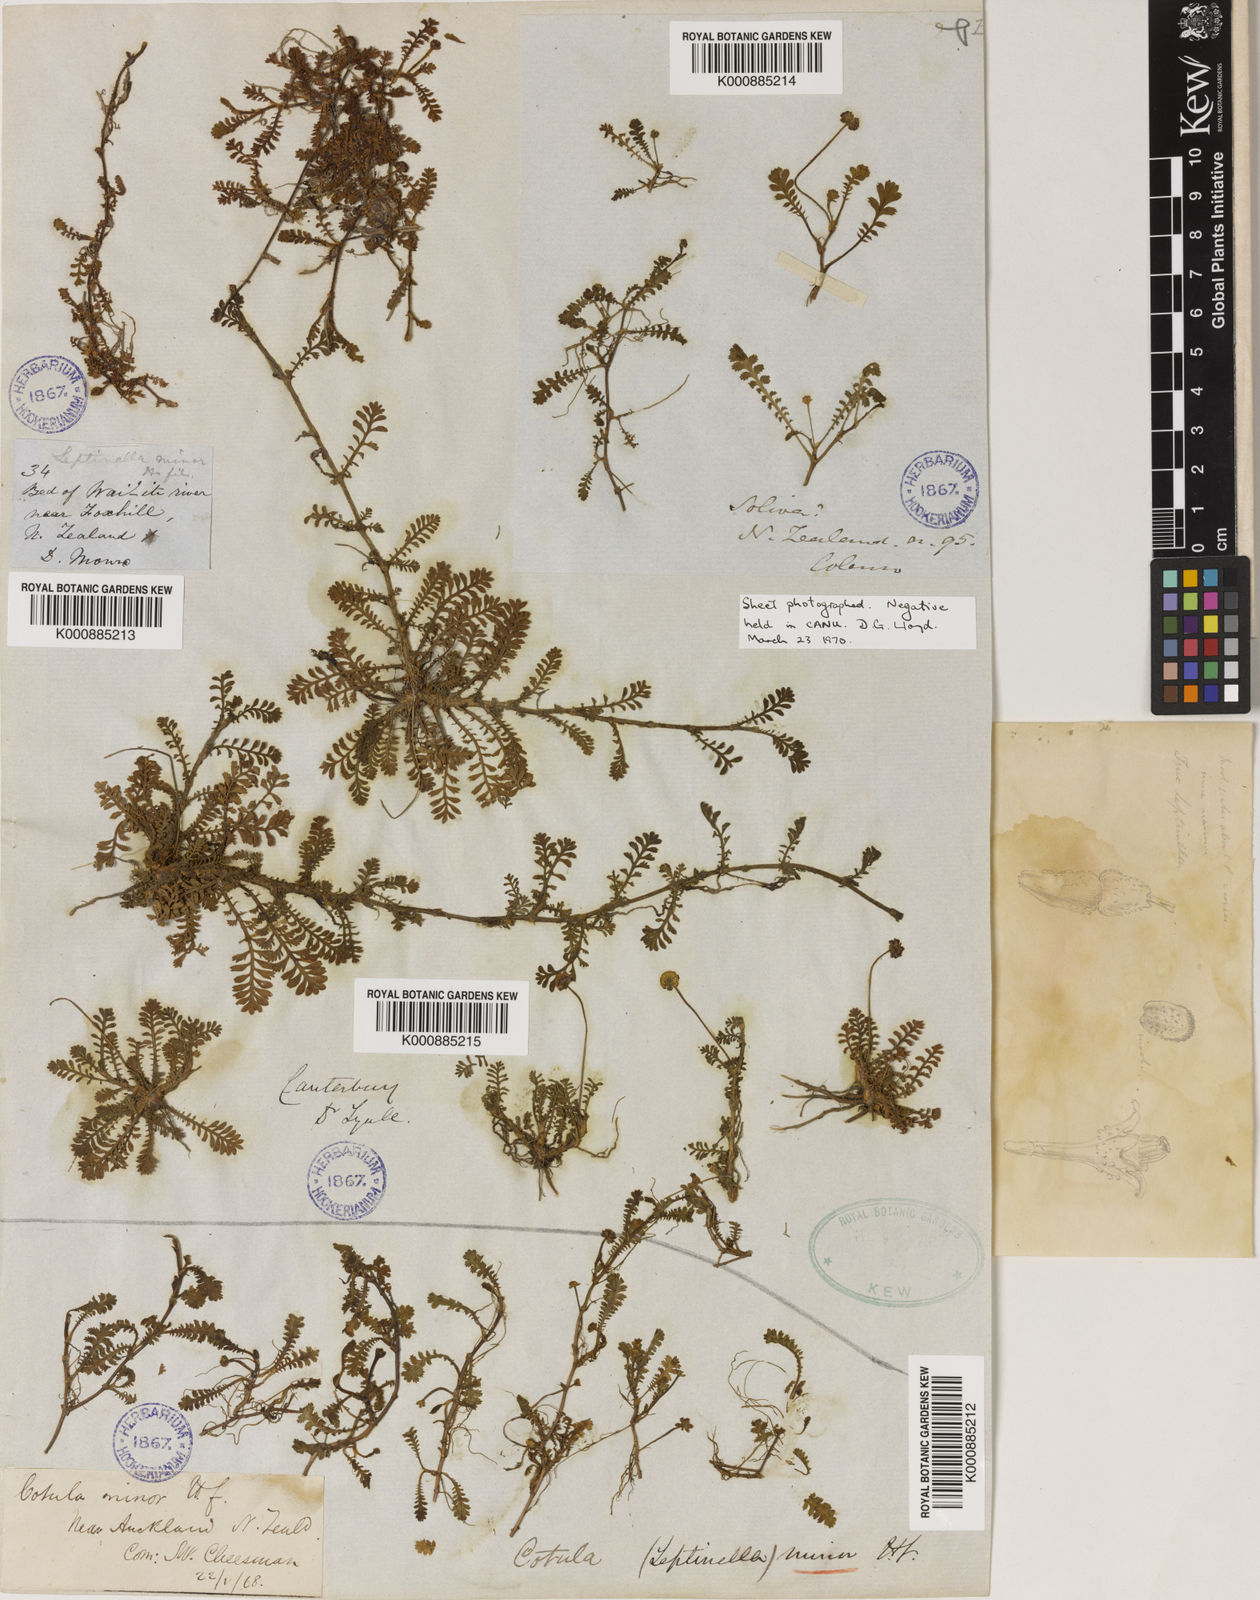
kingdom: Plantae
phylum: Tracheophyta
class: Magnoliopsida
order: Asterales
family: Asteraceae
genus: Leptinella
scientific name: Leptinella minor
